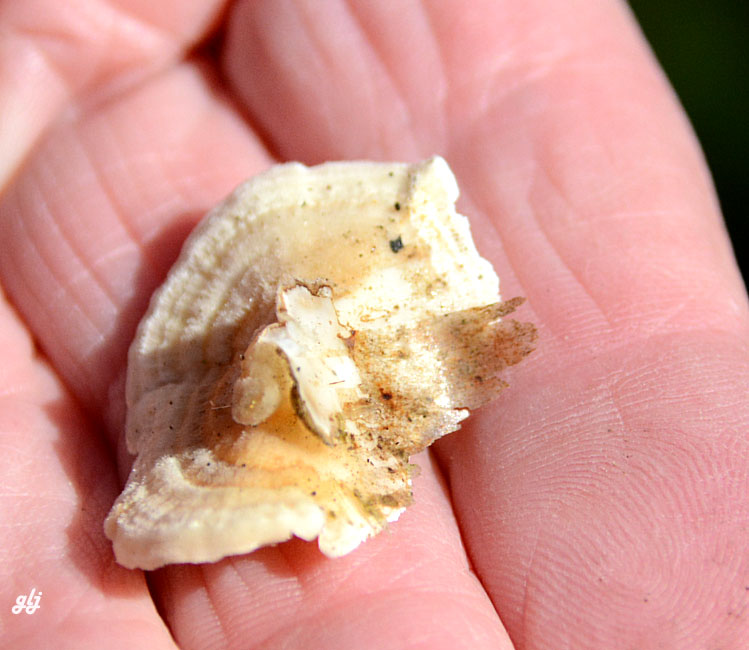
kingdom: Fungi
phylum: Basidiomycota
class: Agaricomycetes
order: Polyporales
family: Polyporaceae
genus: Trametes
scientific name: Trametes ochracea
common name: bæltet læderporesvamp
